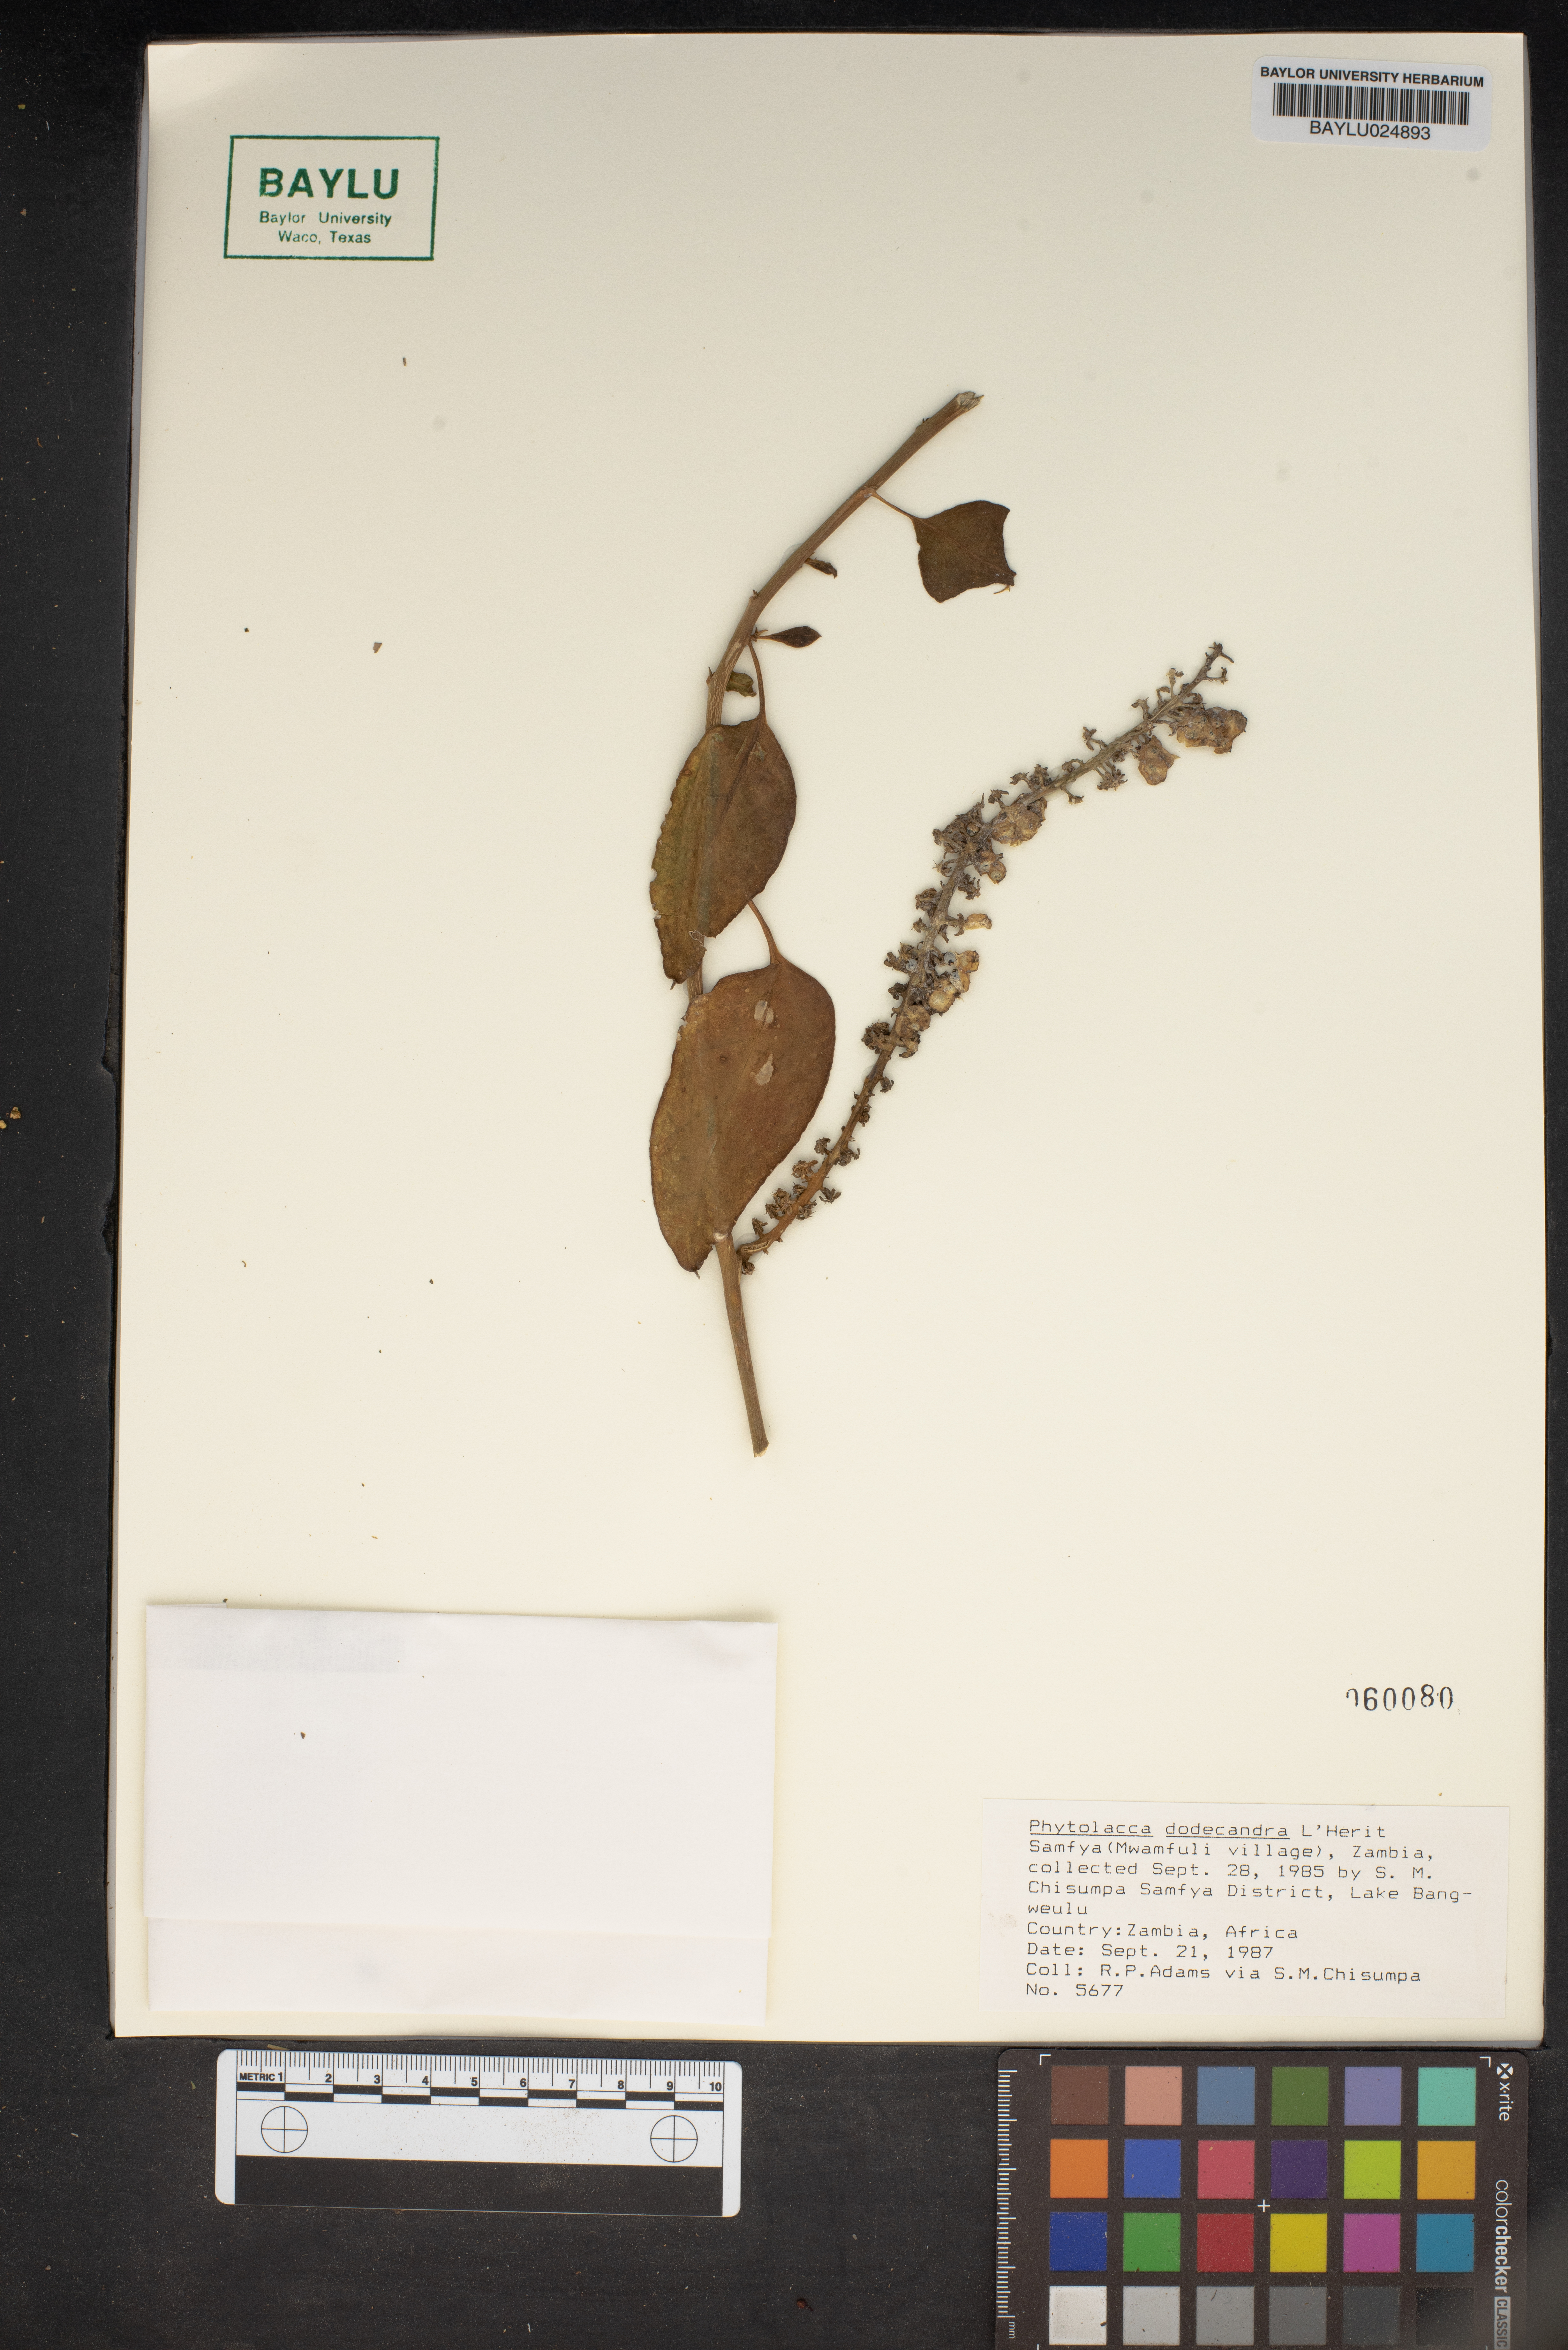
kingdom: Plantae
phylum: Tracheophyta
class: Magnoliopsida
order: Caryophyllales
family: Phytolaccaceae
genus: Phytolacca
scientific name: Phytolacca dodecandra
